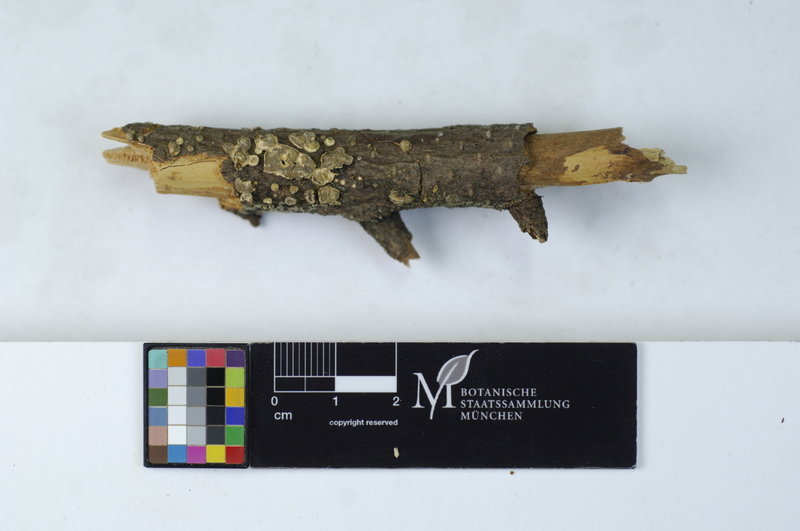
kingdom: Fungi
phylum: Basidiomycota
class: Agaricomycetes
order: Russulales
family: Stereaceae
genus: Aleurodiscus
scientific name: Aleurodiscus amorphus
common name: Orange discus
